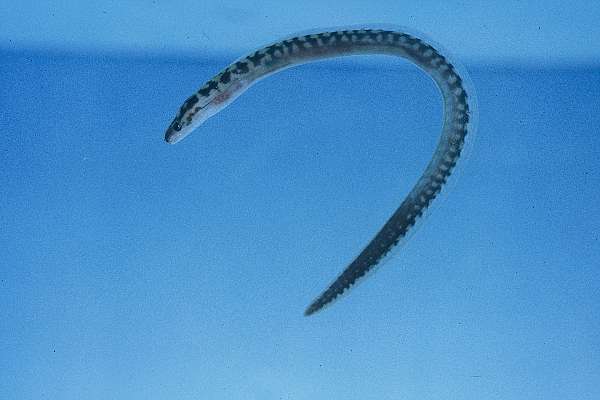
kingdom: Animalia
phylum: Chordata
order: Anguilliformes
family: Muraenidae
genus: Gymnothorax
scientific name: Gymnothorax margaritophorus
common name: Blotch-necked moray
